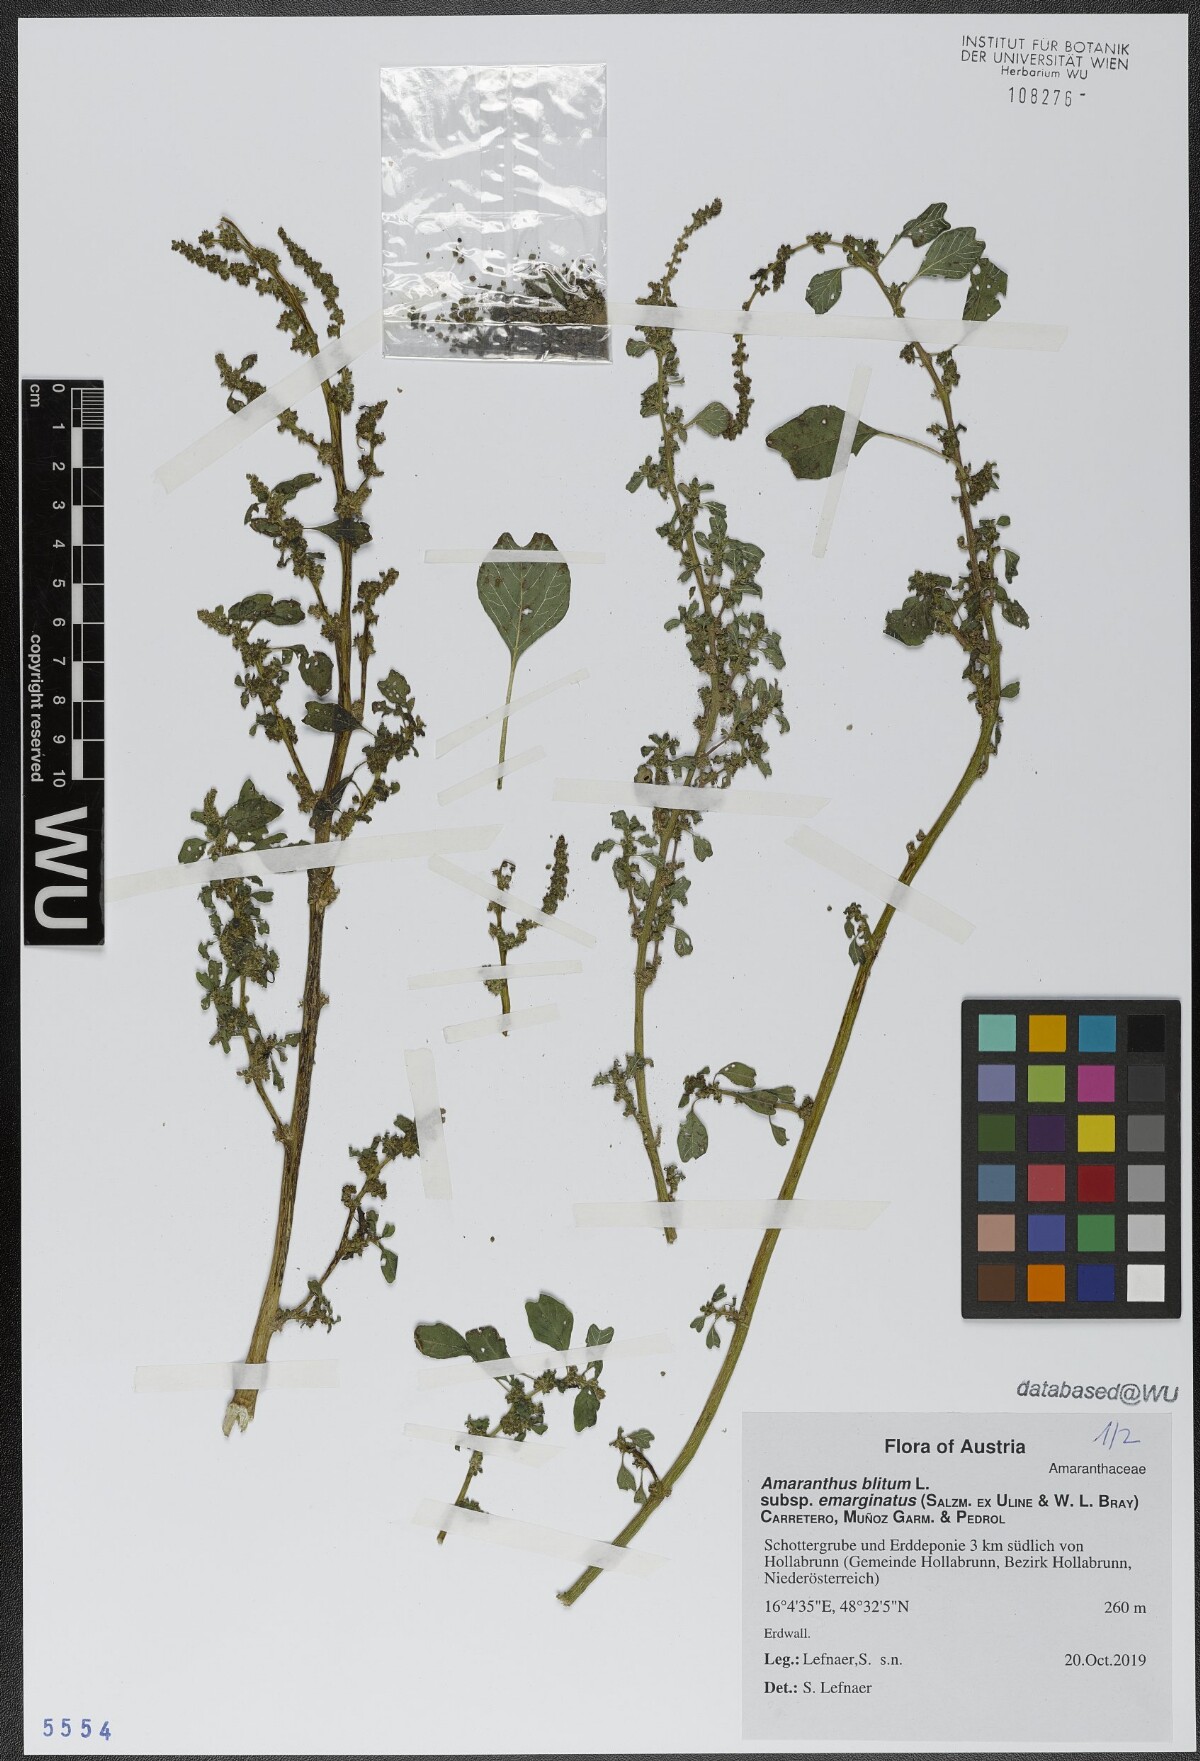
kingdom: Plantae
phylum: Tracheophyta
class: Magnoliopsida
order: Caryophyllales
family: Amaranthaceae
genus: Amaranthus
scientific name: Amaranthus emarginatus
